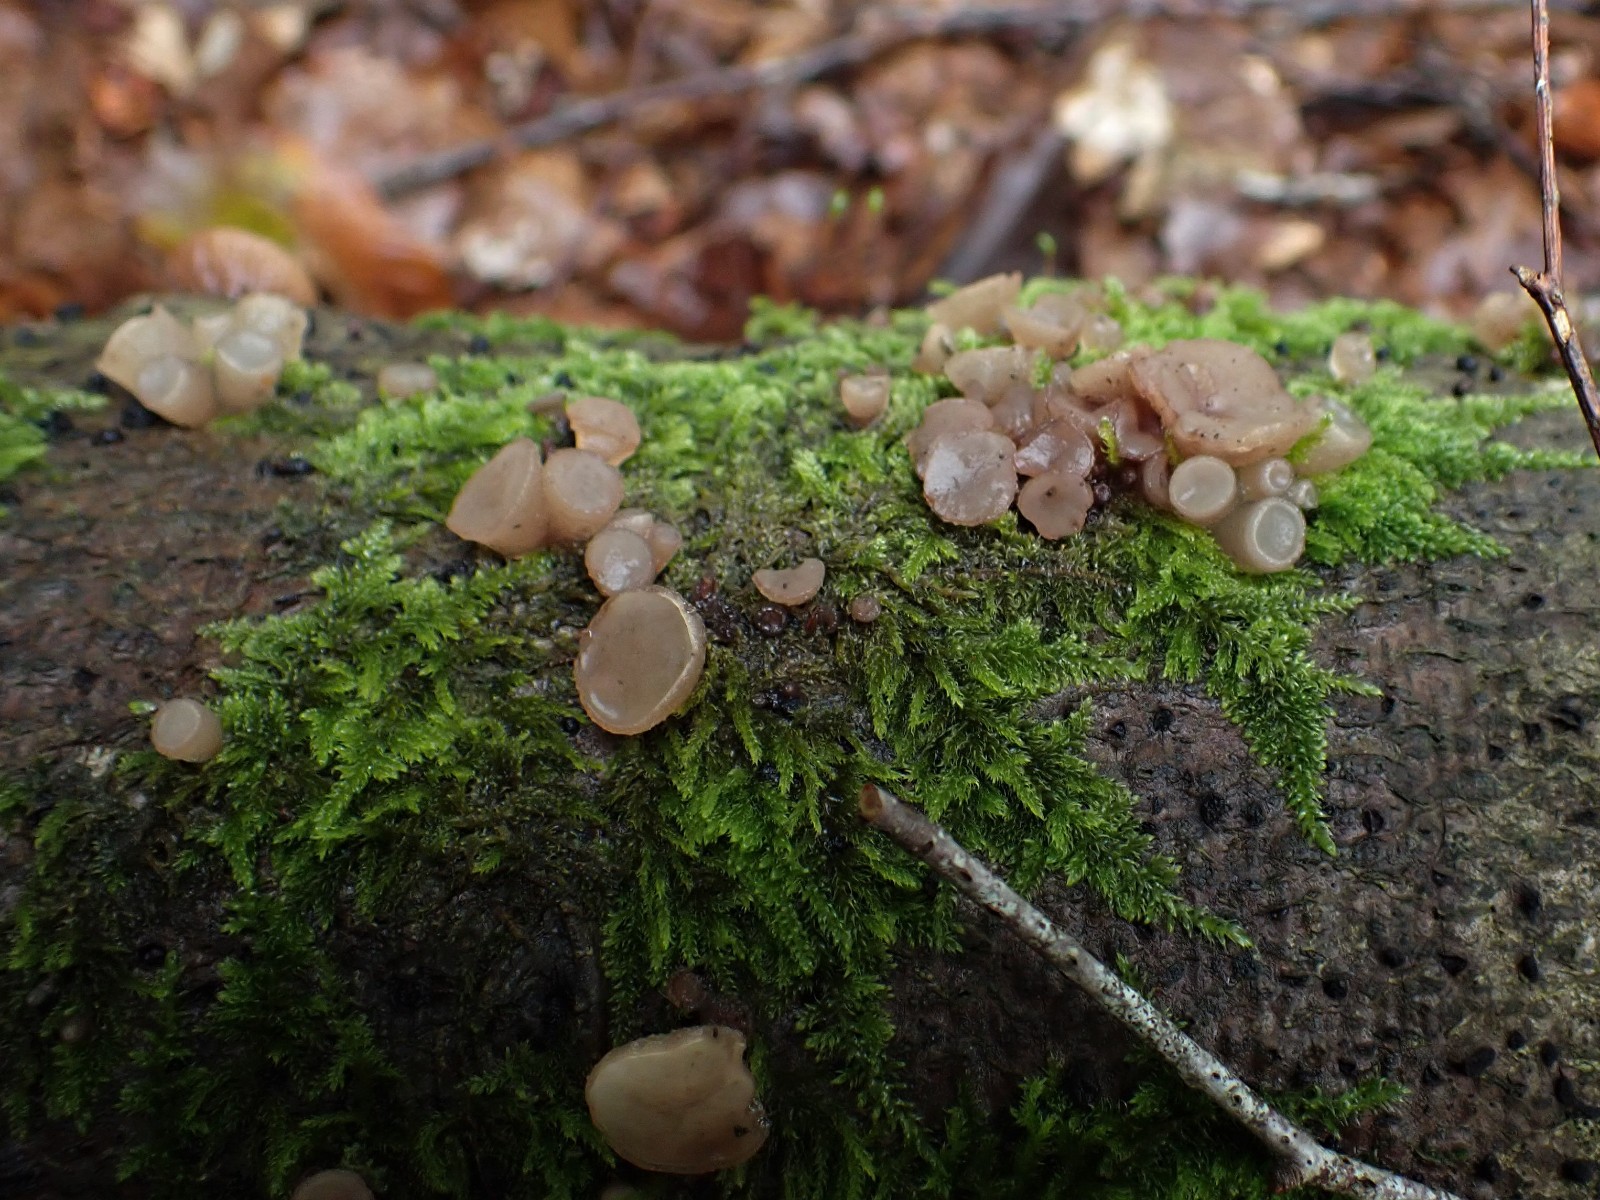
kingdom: Fungi
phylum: Ascomycota
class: Leotiomycetes
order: Helotiales
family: Gelatinodiscaceae
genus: Neobulgaria
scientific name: Neobulgaria pura
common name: bleg bævreskive
